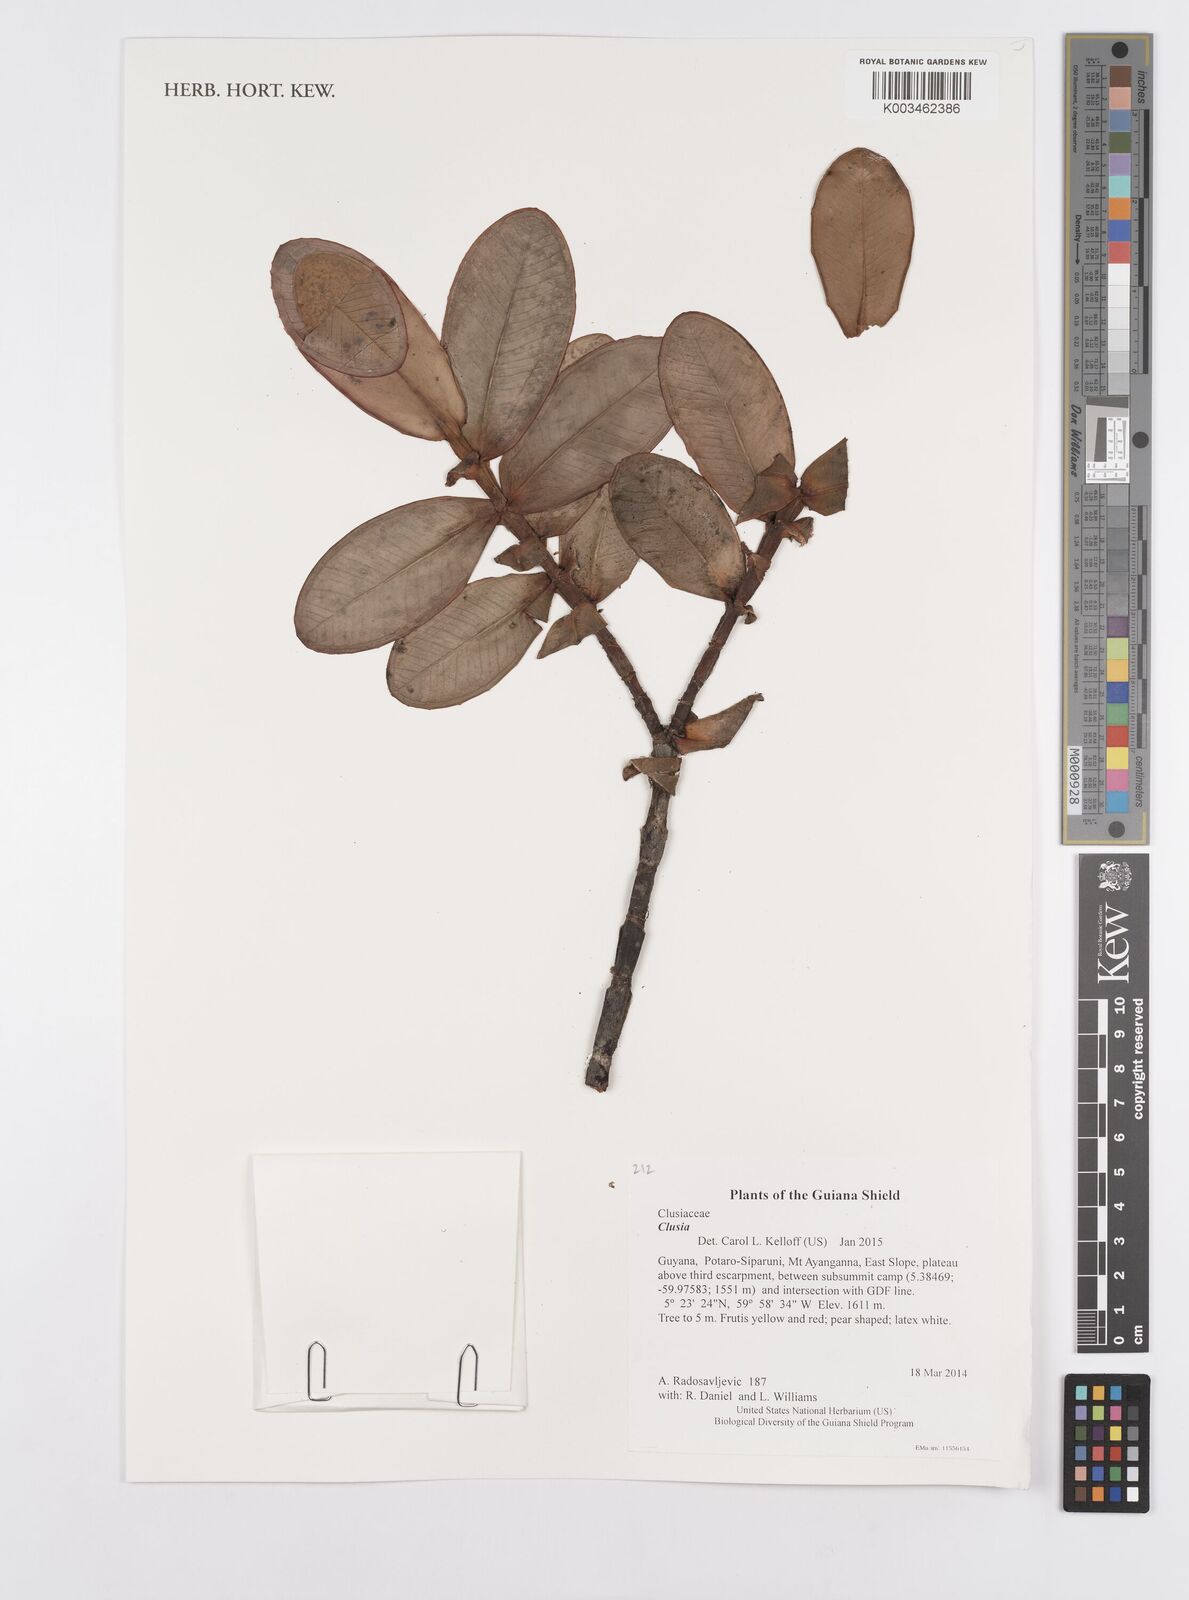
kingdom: Plantae
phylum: Tracheophyta
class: Magnoliopsida
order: Malpighiales
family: Clusiaceae
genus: Clusia
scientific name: Clusia
